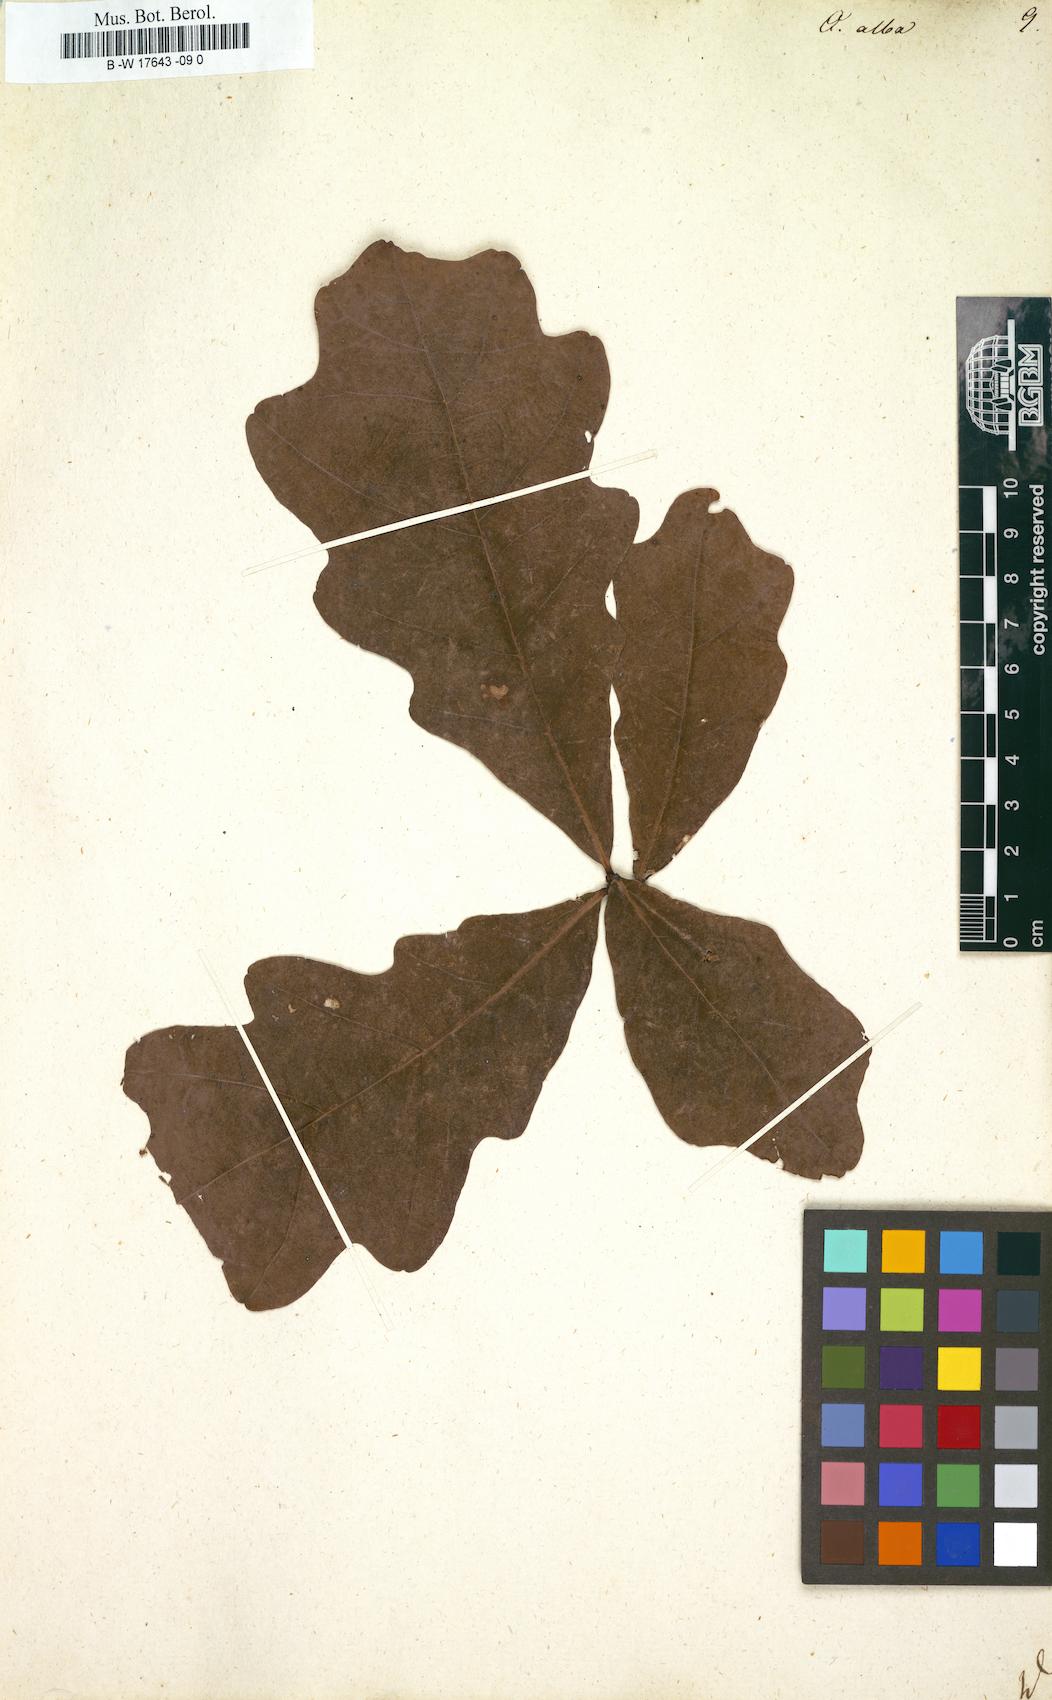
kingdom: Plantae
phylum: Tracheophyta
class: Magnoliopsida
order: Fagales
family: Fagaceae
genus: Quercus
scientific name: Quercus alba
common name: White oak
